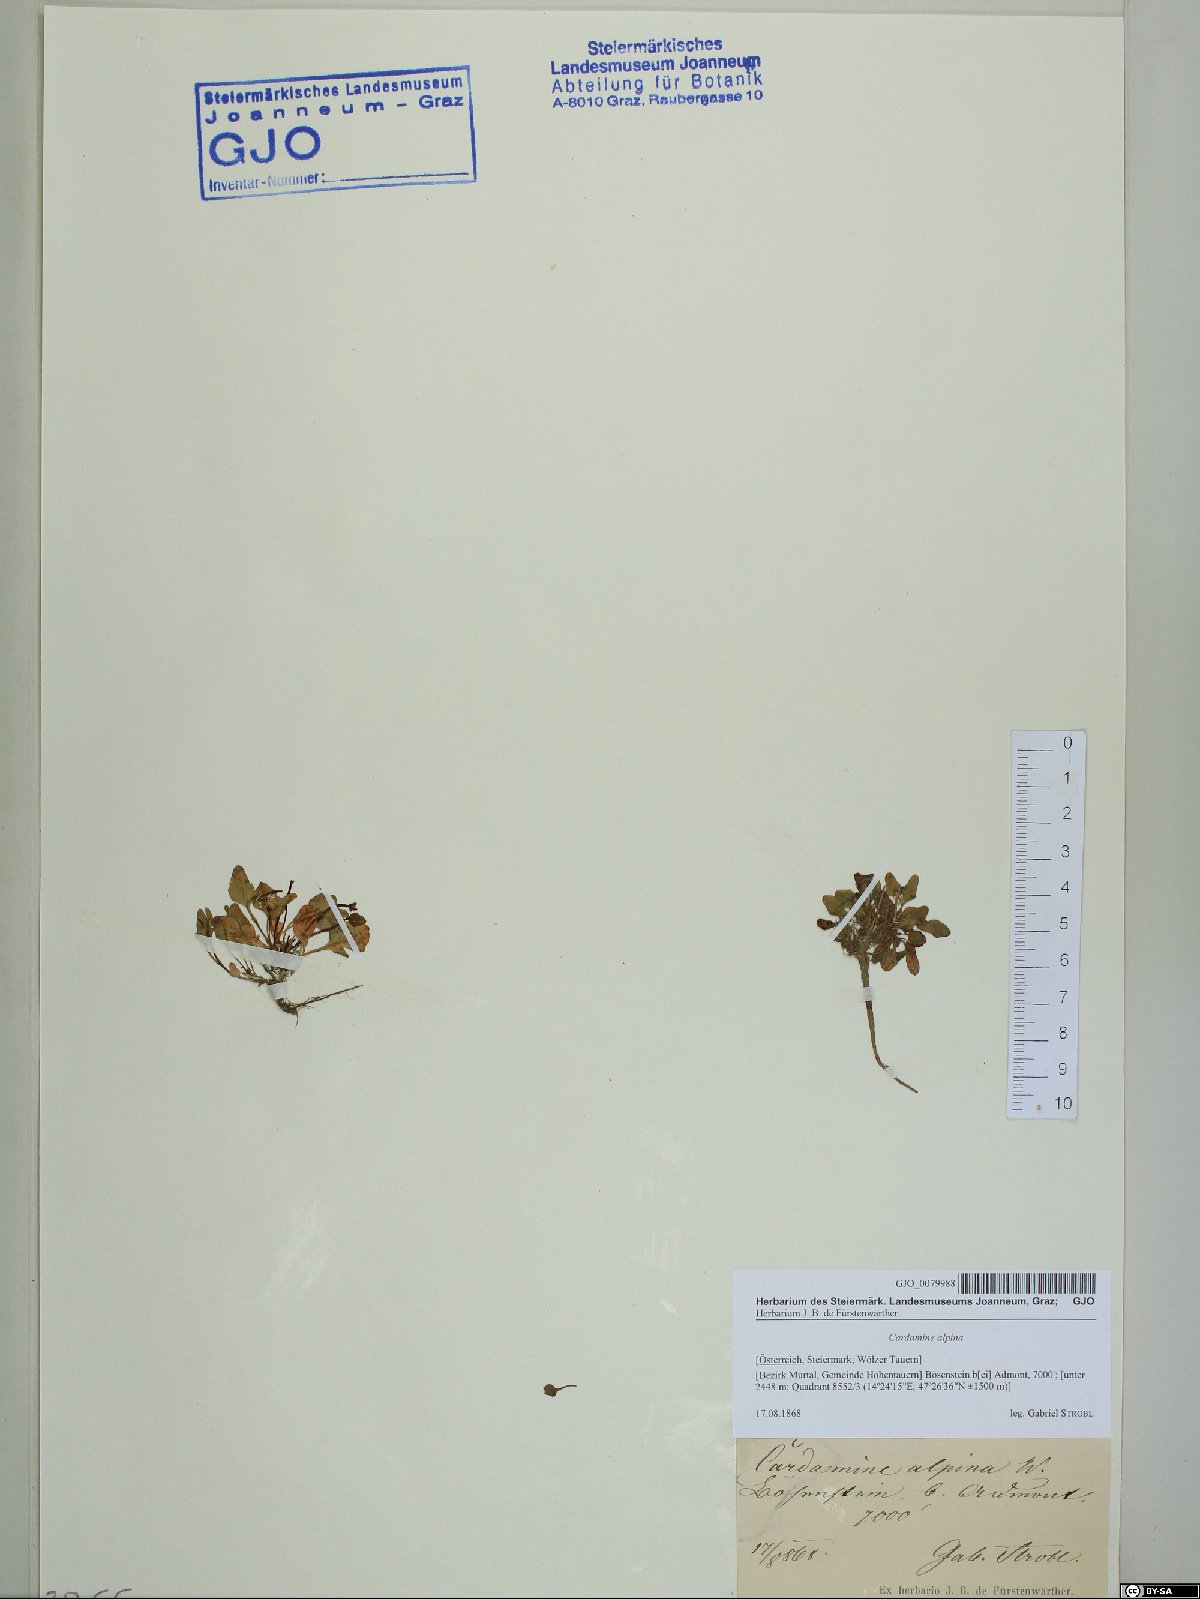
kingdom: Plantae
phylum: Tracheophyta
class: Magnoliopsida
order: Brassicales
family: Brassicaceae
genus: Cardamine
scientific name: Cardamine bellidifolia
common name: Alpine bittercress
